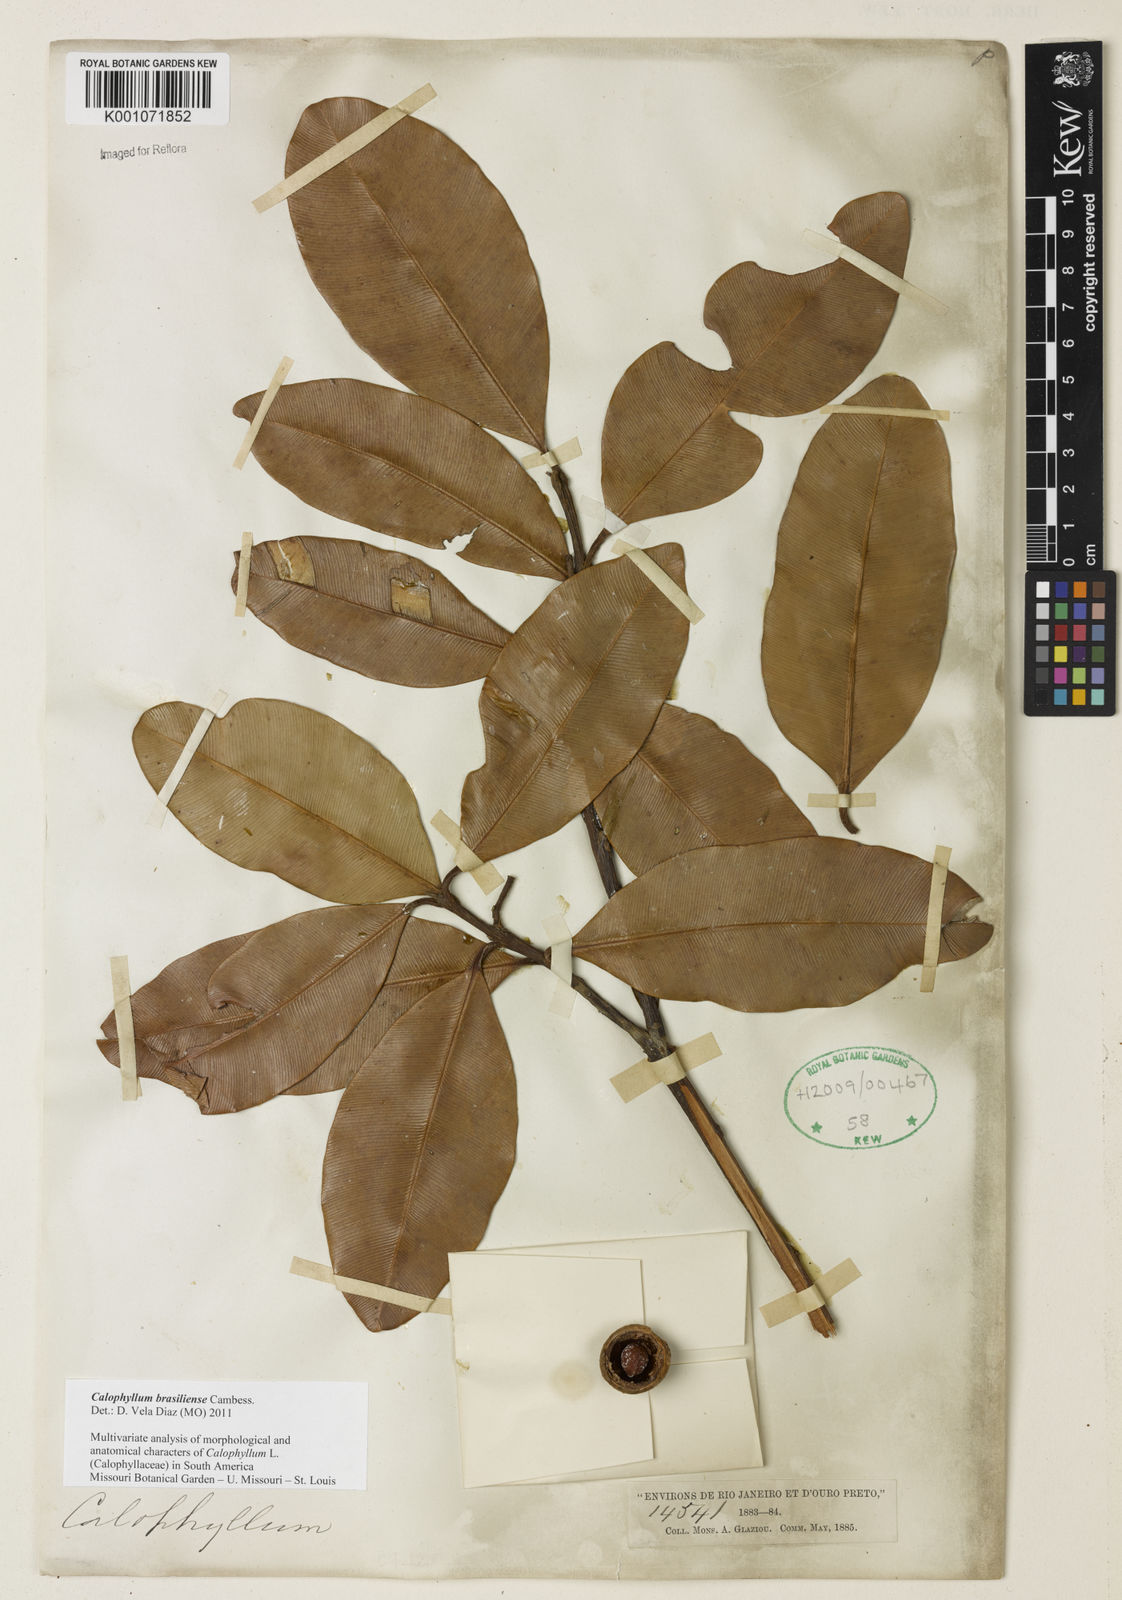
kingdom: Plantae
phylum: Tracheophyta
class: Magnoliopsida
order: Malpighiales
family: Calophyllaceae
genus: Calophyllum
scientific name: Calophyllum brasiliense
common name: Santa maria
